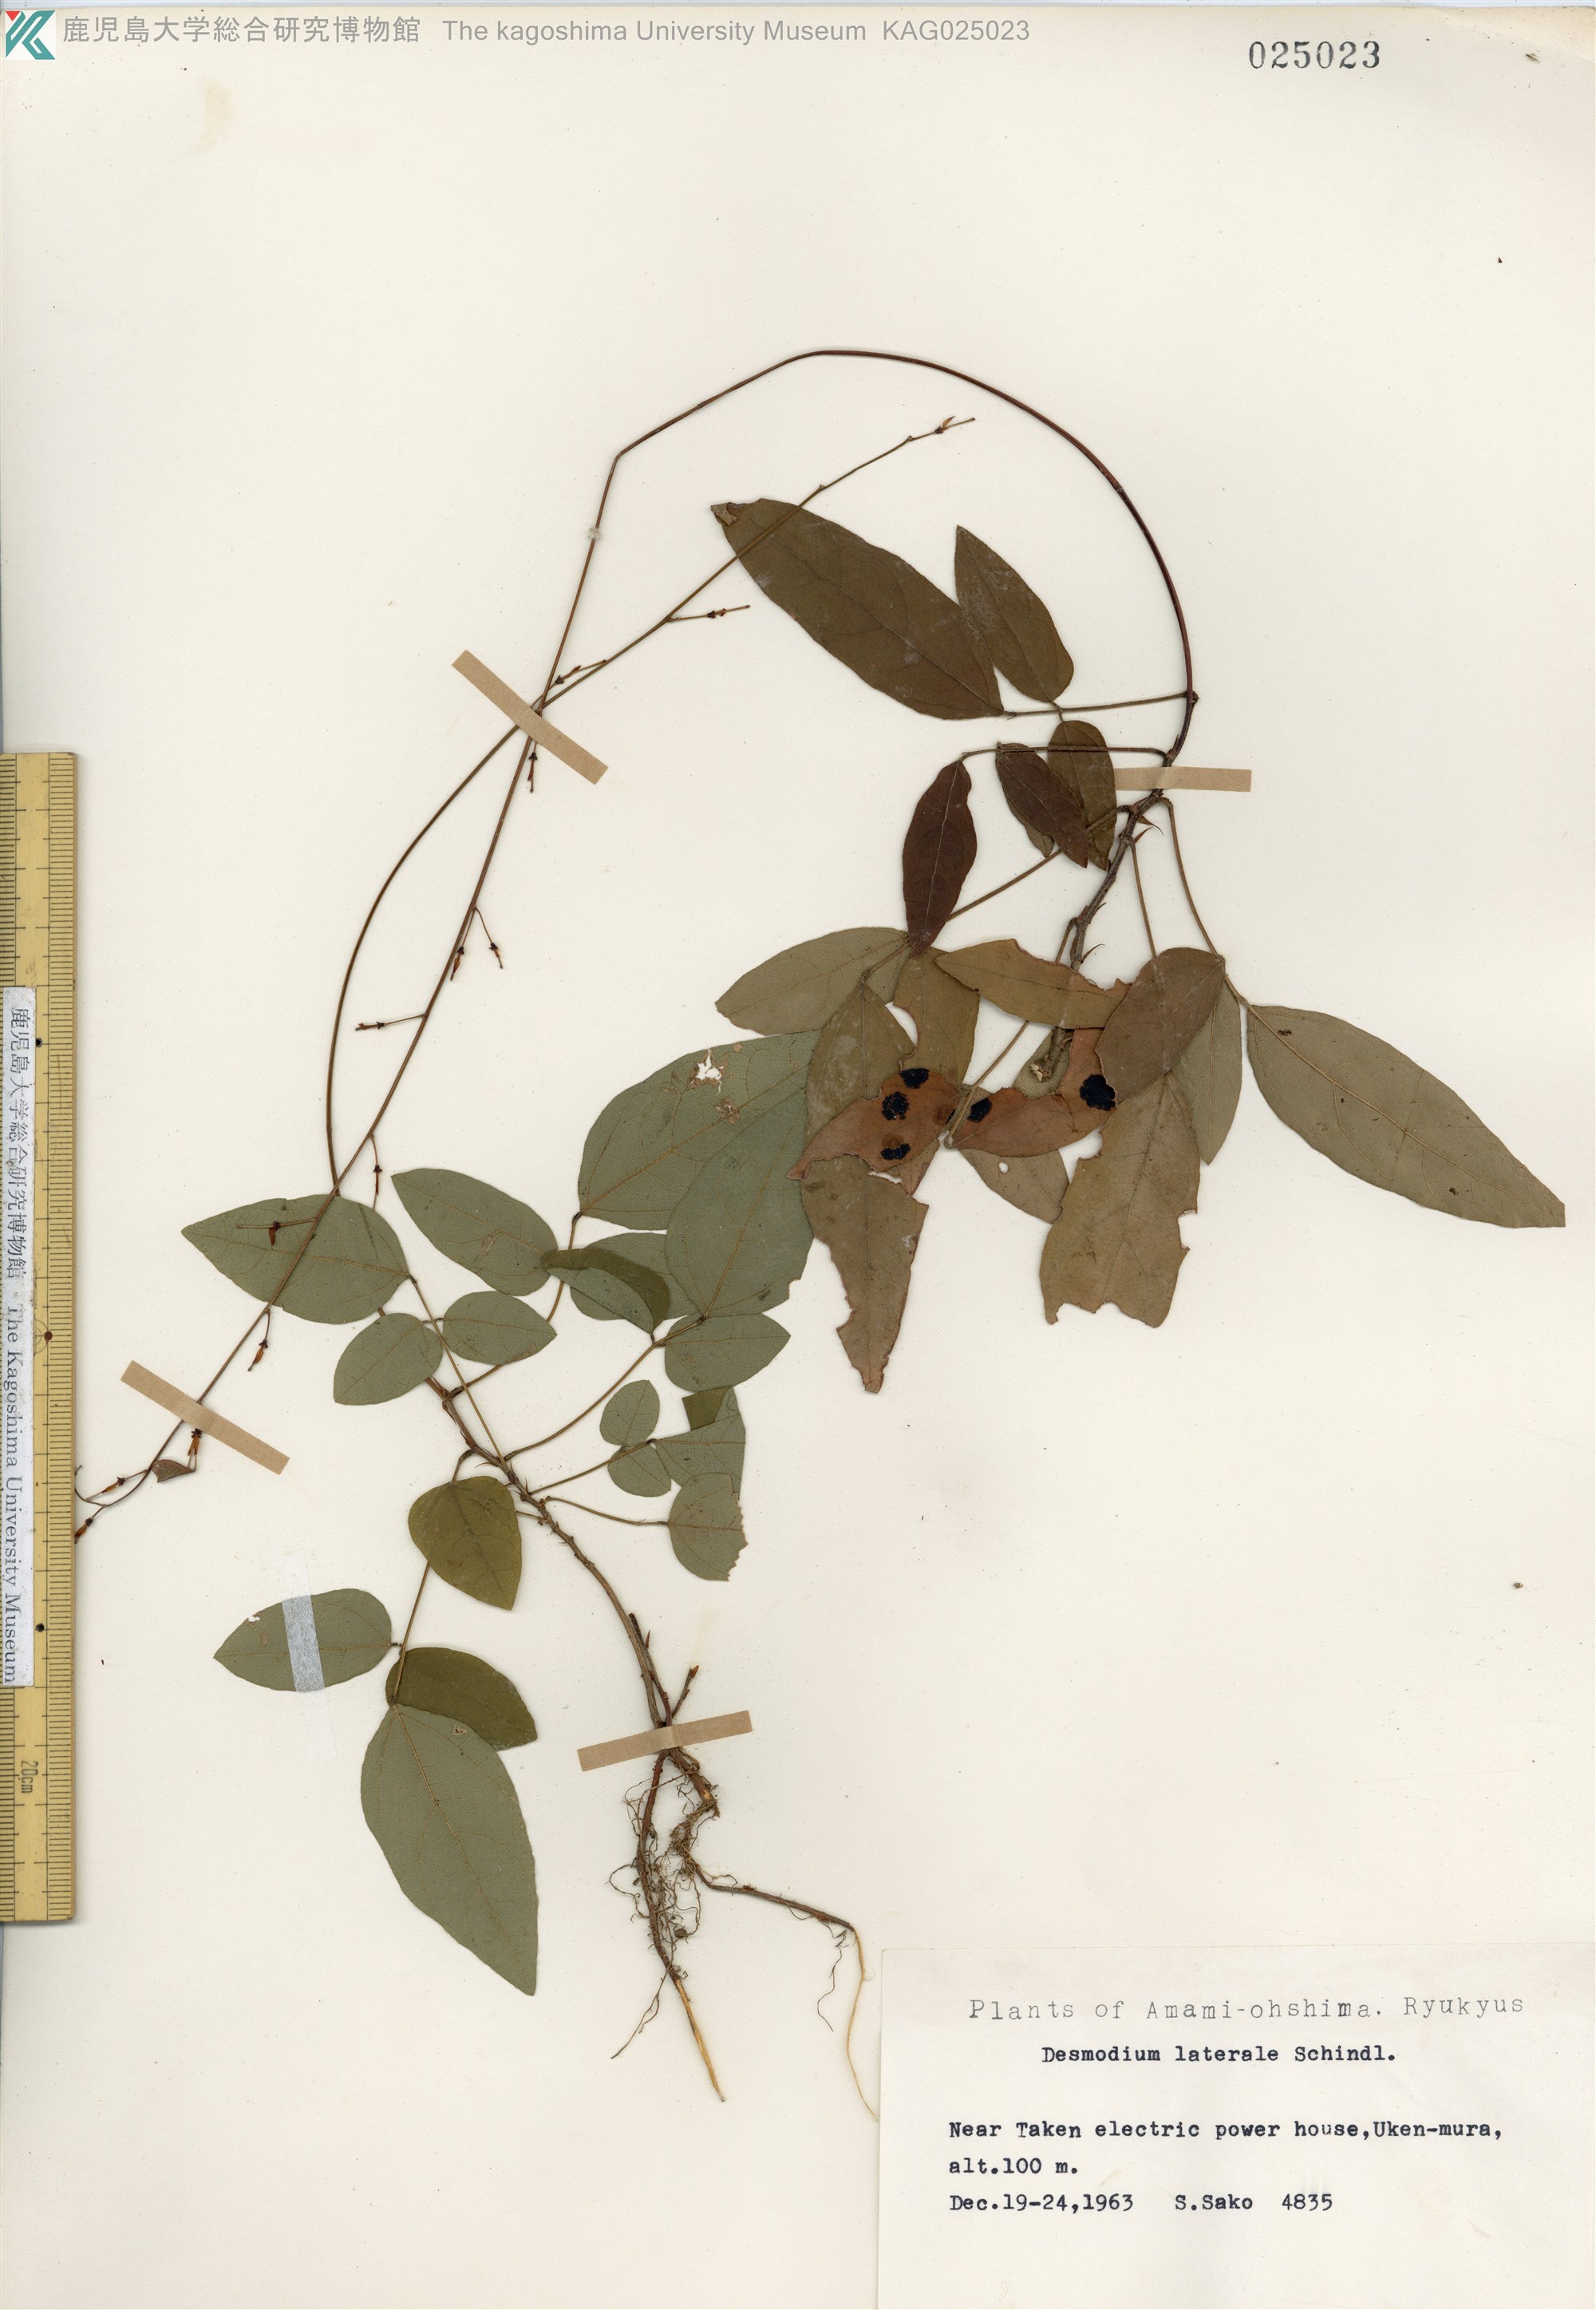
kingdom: Plantae
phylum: Tracheophyta
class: Magnoliopsida
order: Fabales
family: Fabaceae
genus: Hylodesmum
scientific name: Hylodesmum laterale
